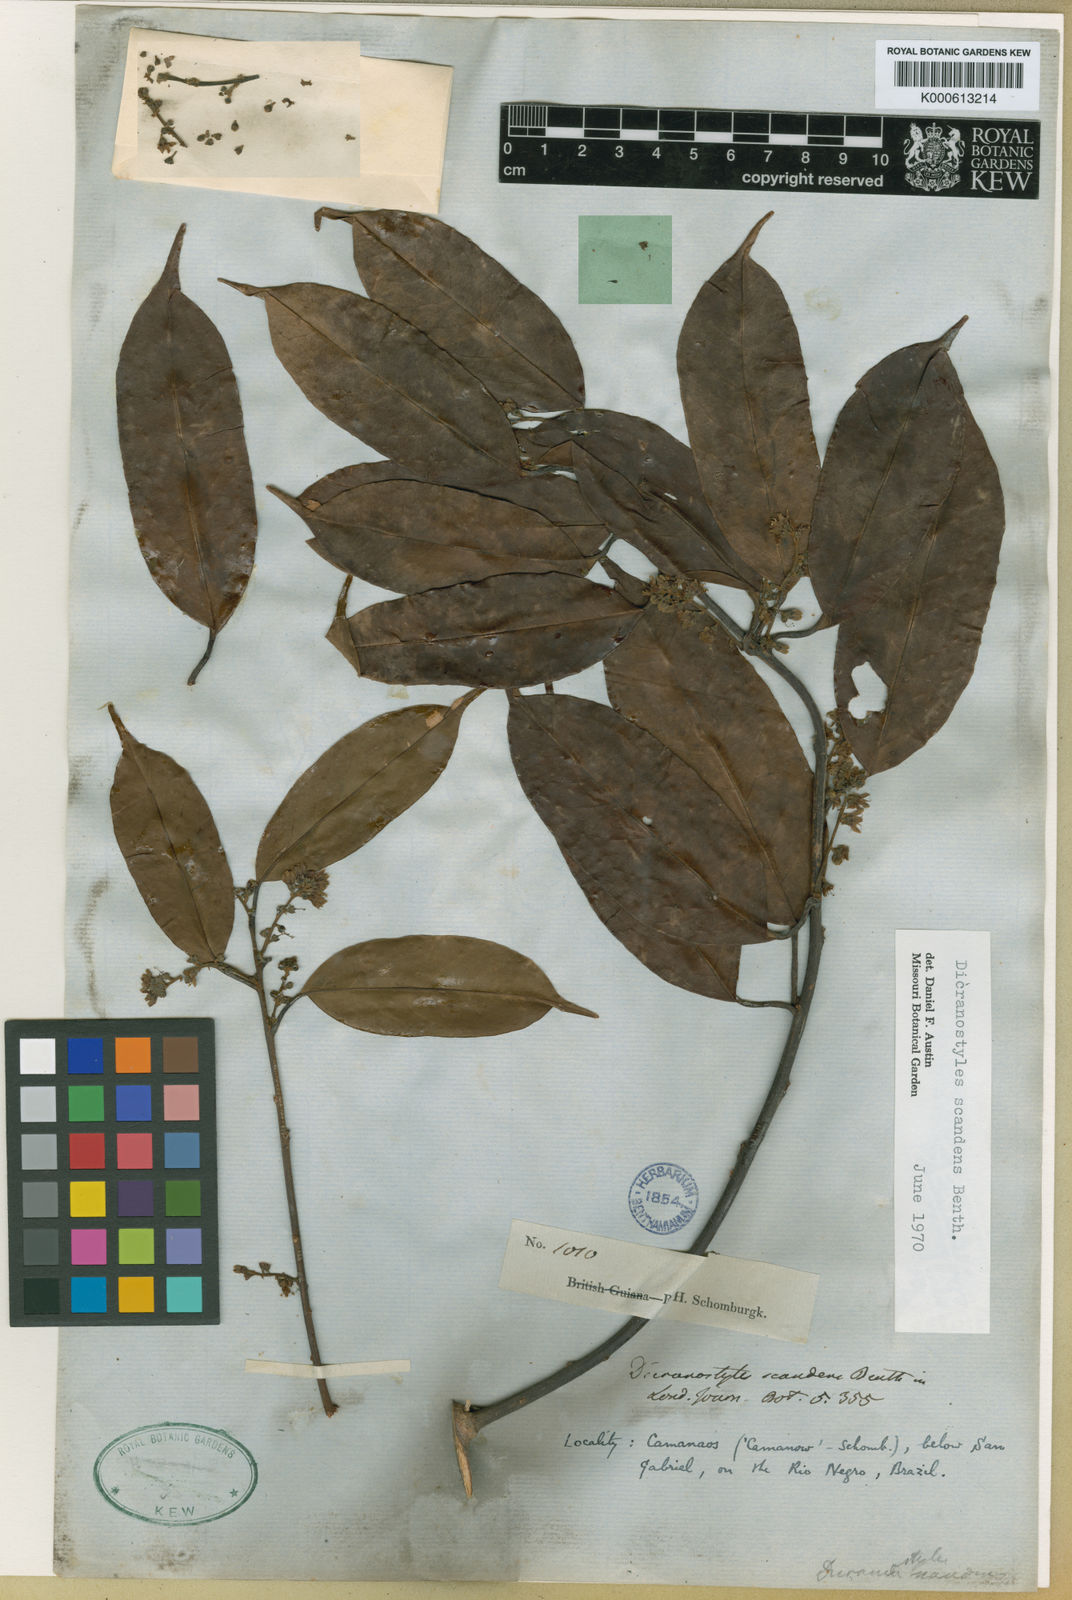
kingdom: Plantae
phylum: Tracheophyta
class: Magnoliopsida
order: Solanales
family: Convolvulaceae
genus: Dicranostyles
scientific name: Dicranostyles scandens
